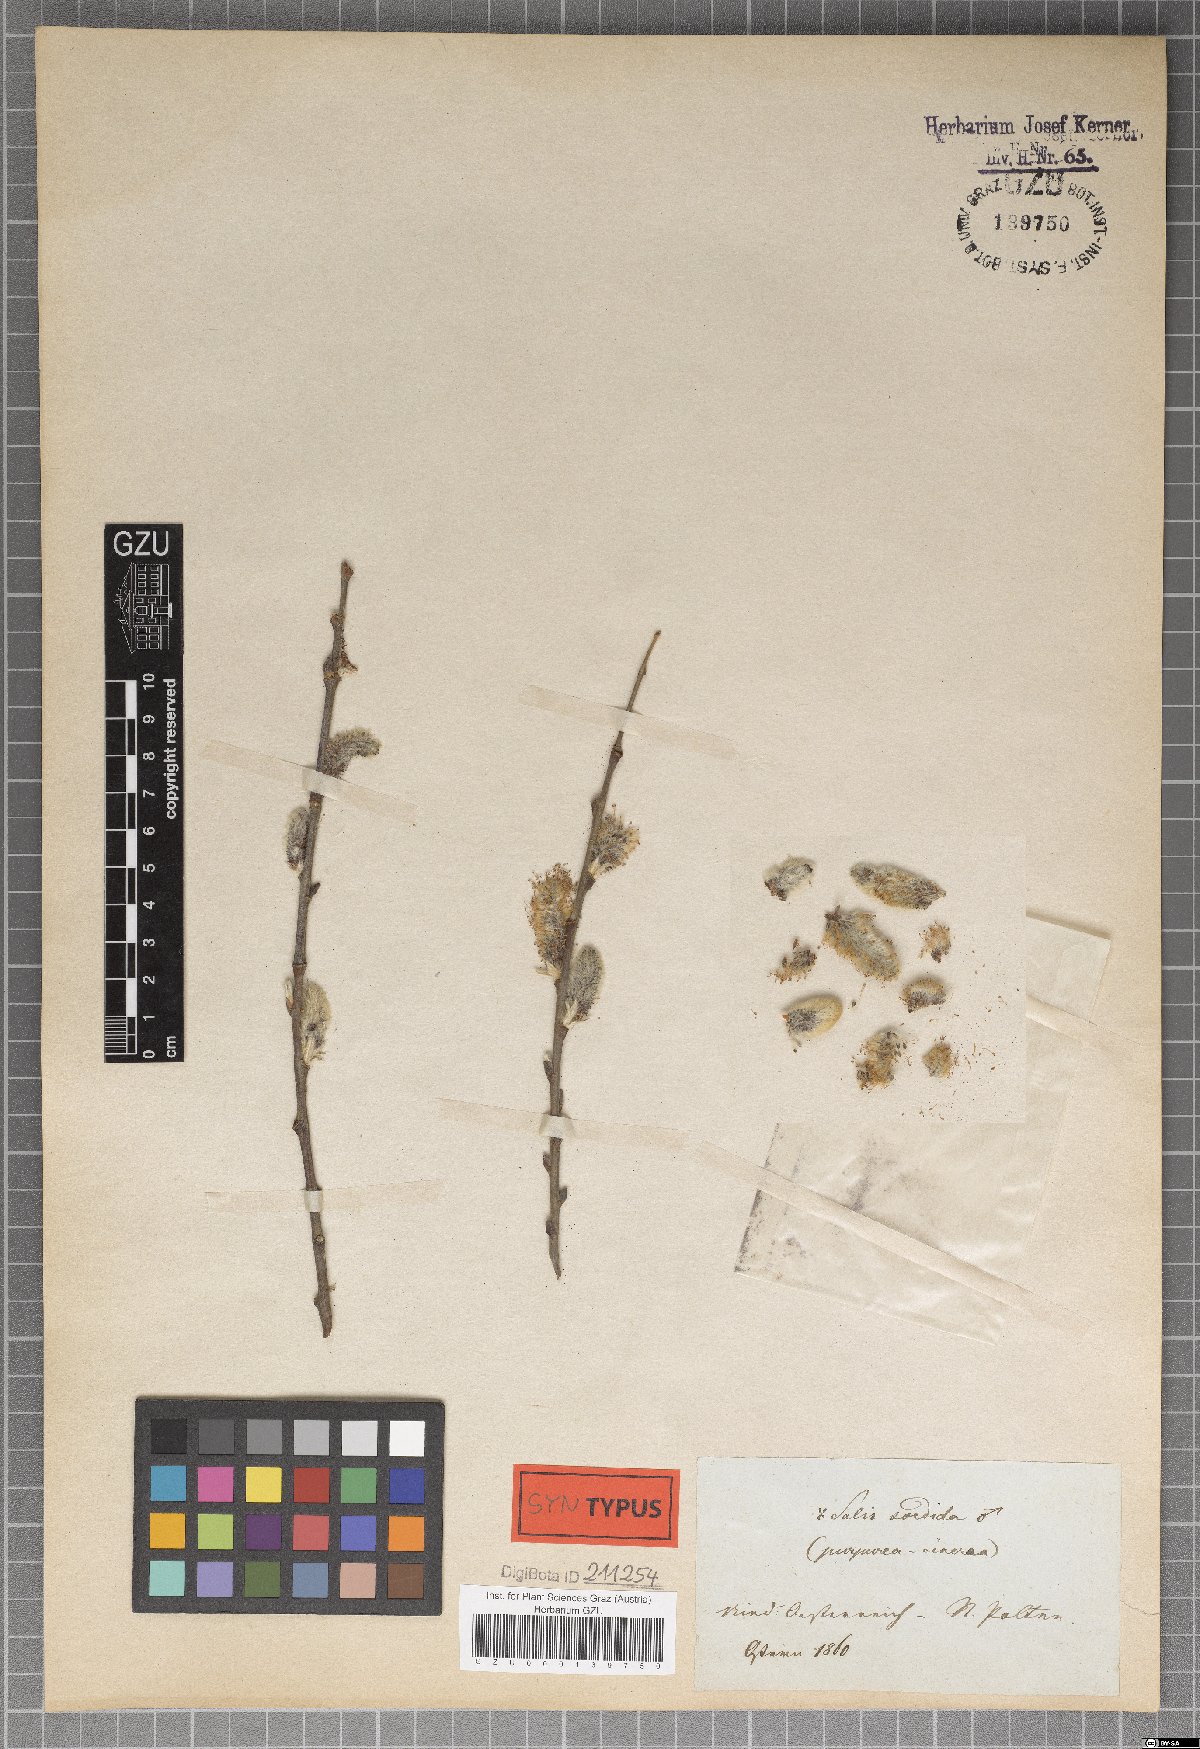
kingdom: Plantae
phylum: Tracheophyta
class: Magnoliopsida
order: Malpighiales
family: Salicaceae
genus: Salix
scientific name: Salix sordida
